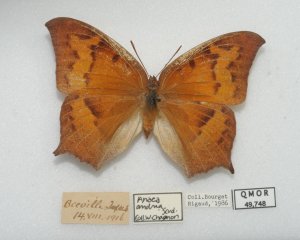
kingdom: Animalia
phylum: Arthropoda
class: Insecta
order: Lepidoptera
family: Nymphalidae
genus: Anaea
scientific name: Anaea andria
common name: Goatweed Leafwing
